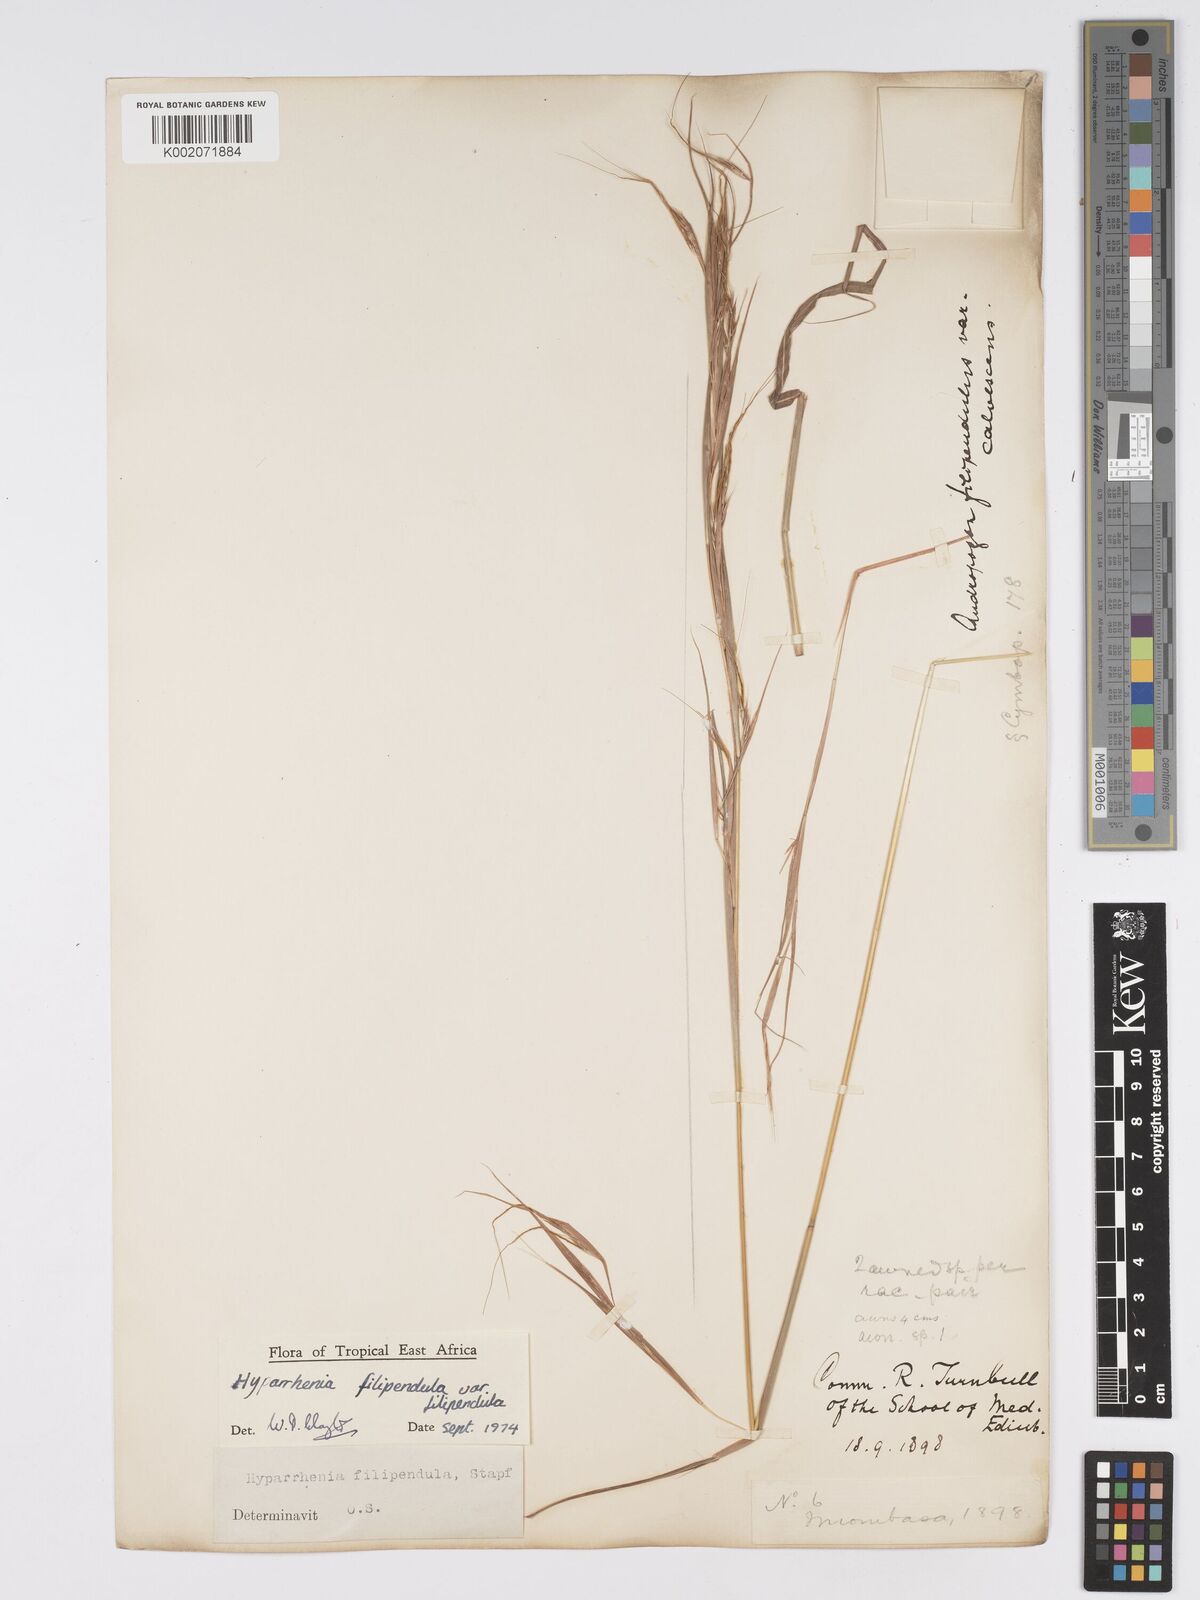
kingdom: Plantae
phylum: Tracheophyta
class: Liliopsida
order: Poales
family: Poaceae
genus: Hyparrhenia
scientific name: Hyparrhenia filipendula
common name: Tambookie grass
